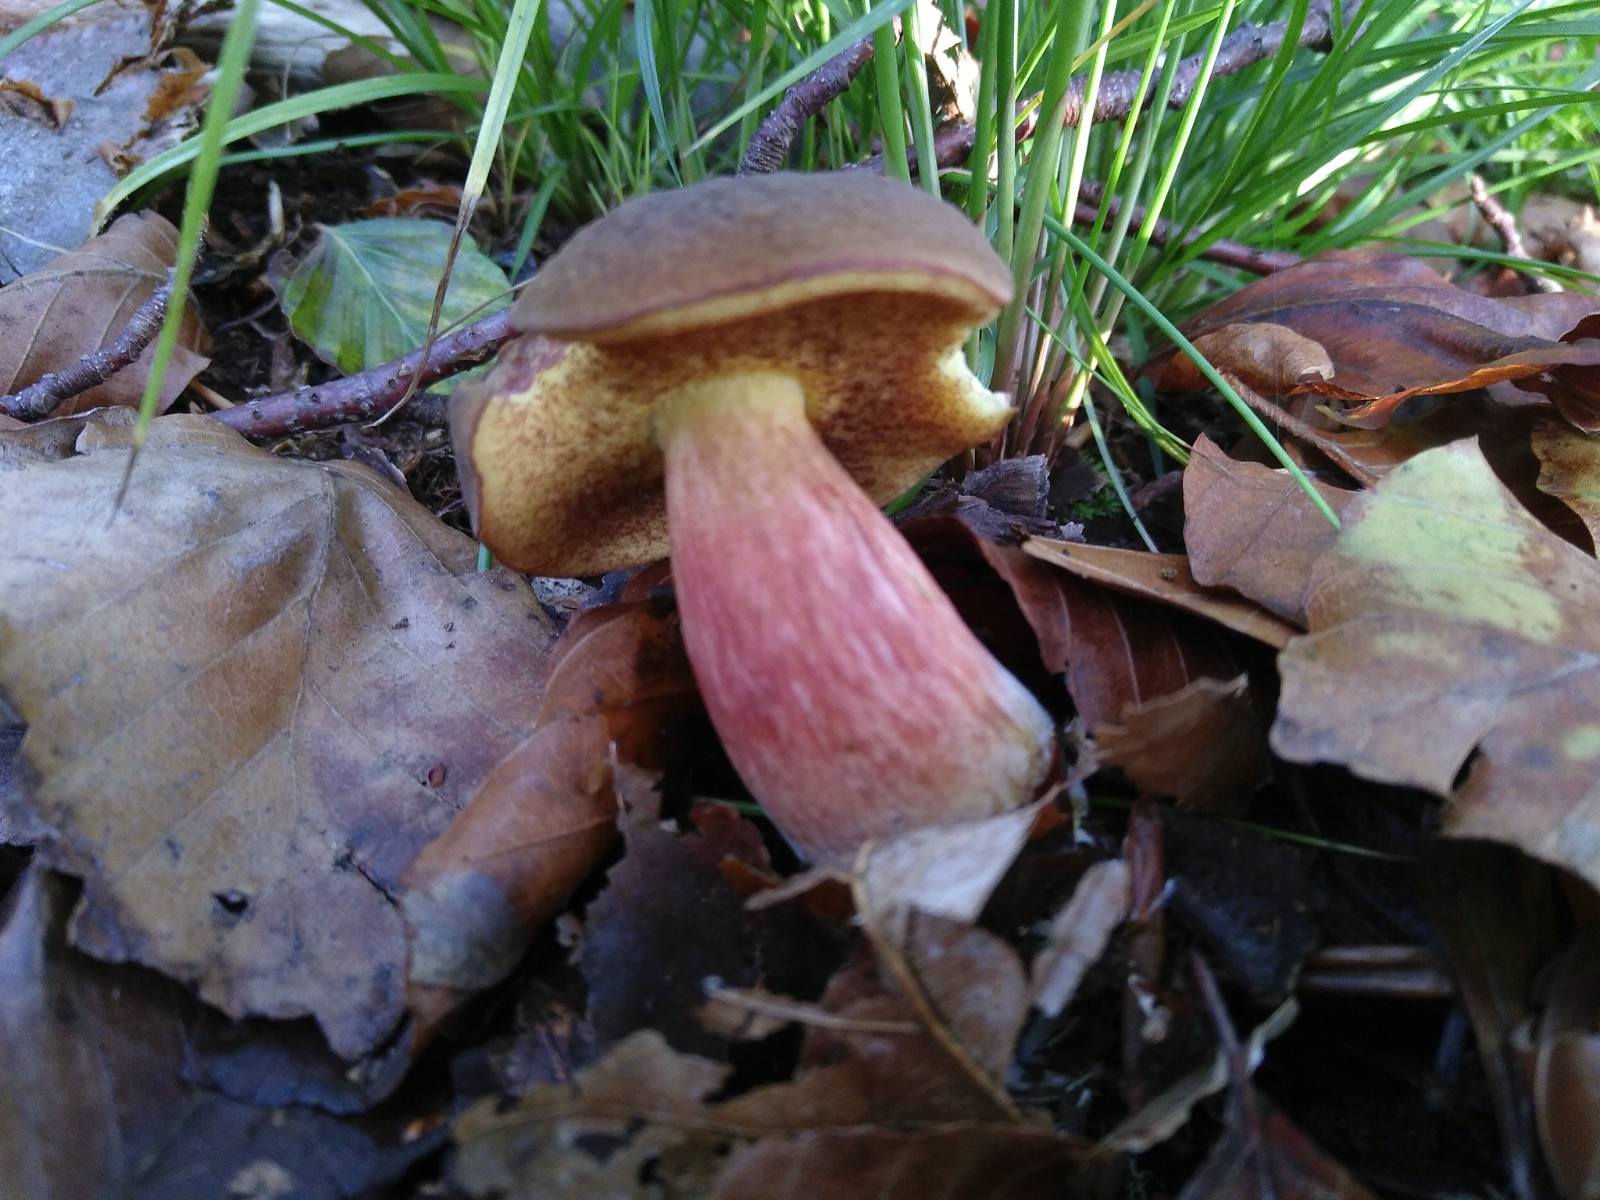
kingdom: Fungi
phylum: Basidiomycota
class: Agaricomycetes
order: Boletales
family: Boletaceae
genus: Xerocomellus
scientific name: Xerocomellus pruinatus
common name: dugget rørhat
